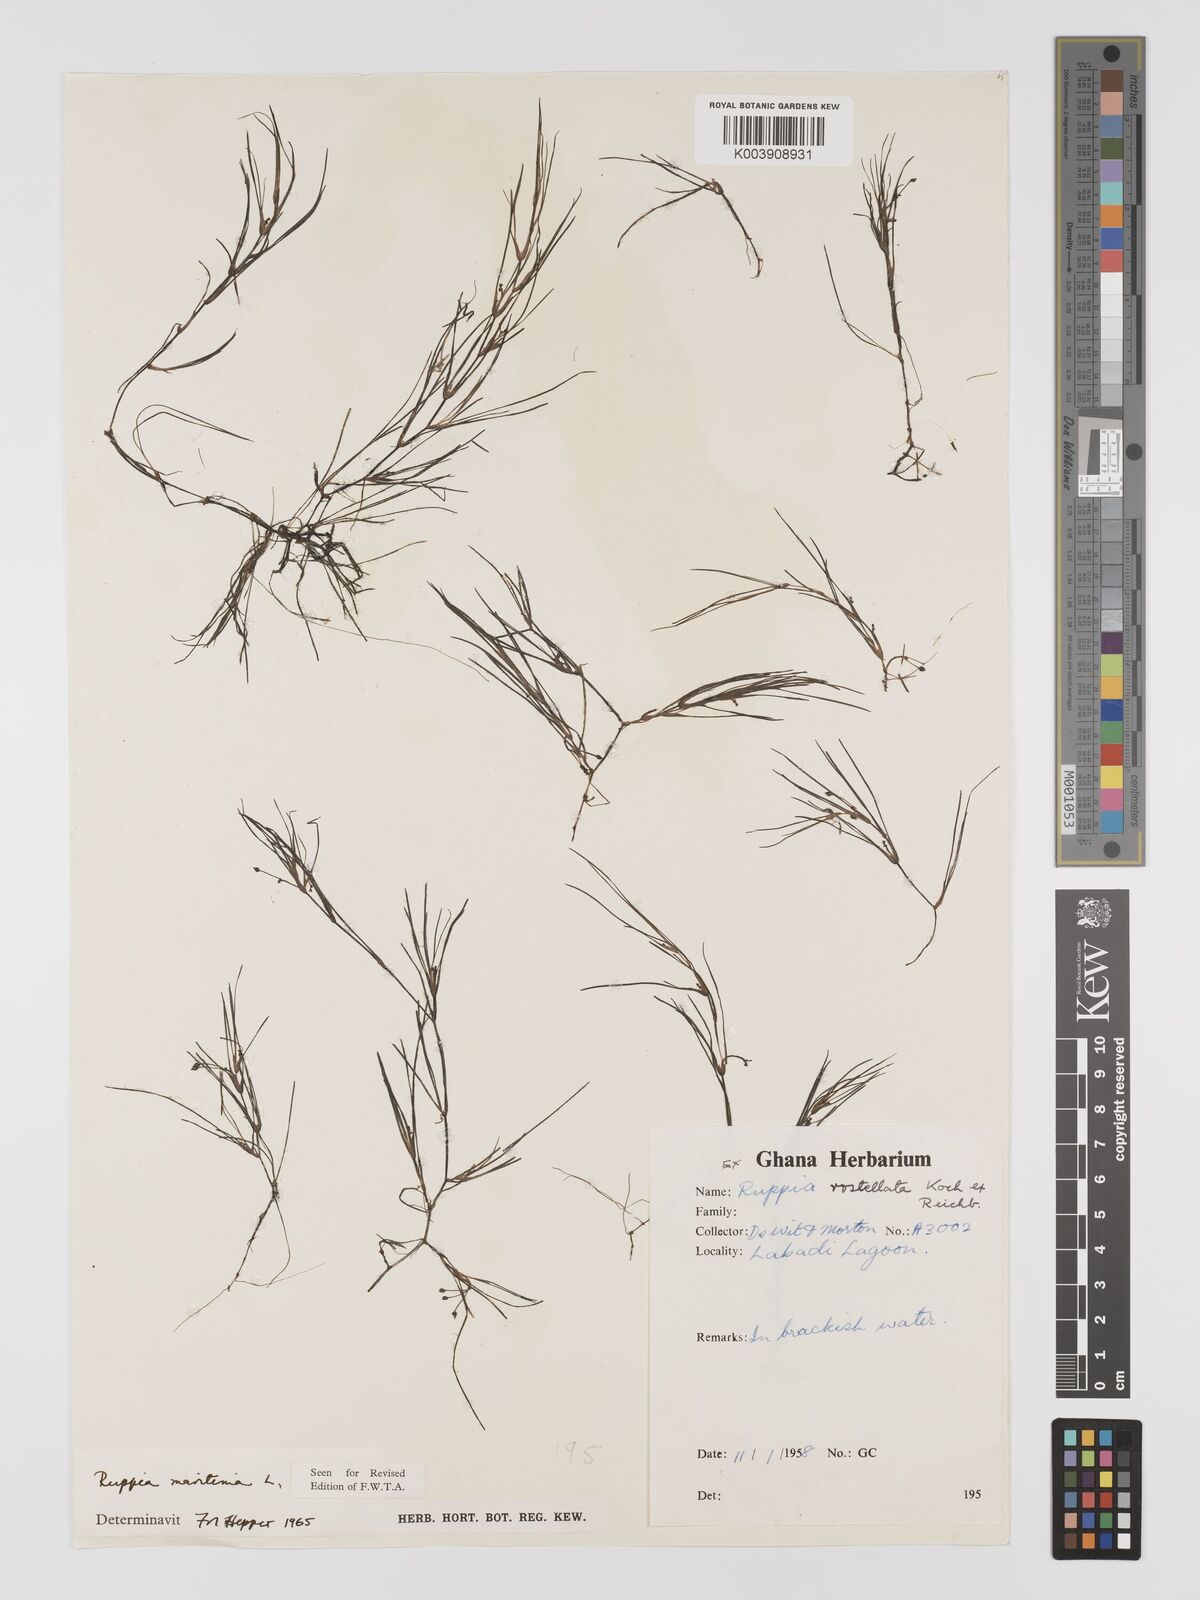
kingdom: Plantae
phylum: Tracheophyta
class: Liliopsida
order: Alismatales
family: Ruppiaceae
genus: Ruppia
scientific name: Ruppia maritima
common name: Beaked tasselweed
